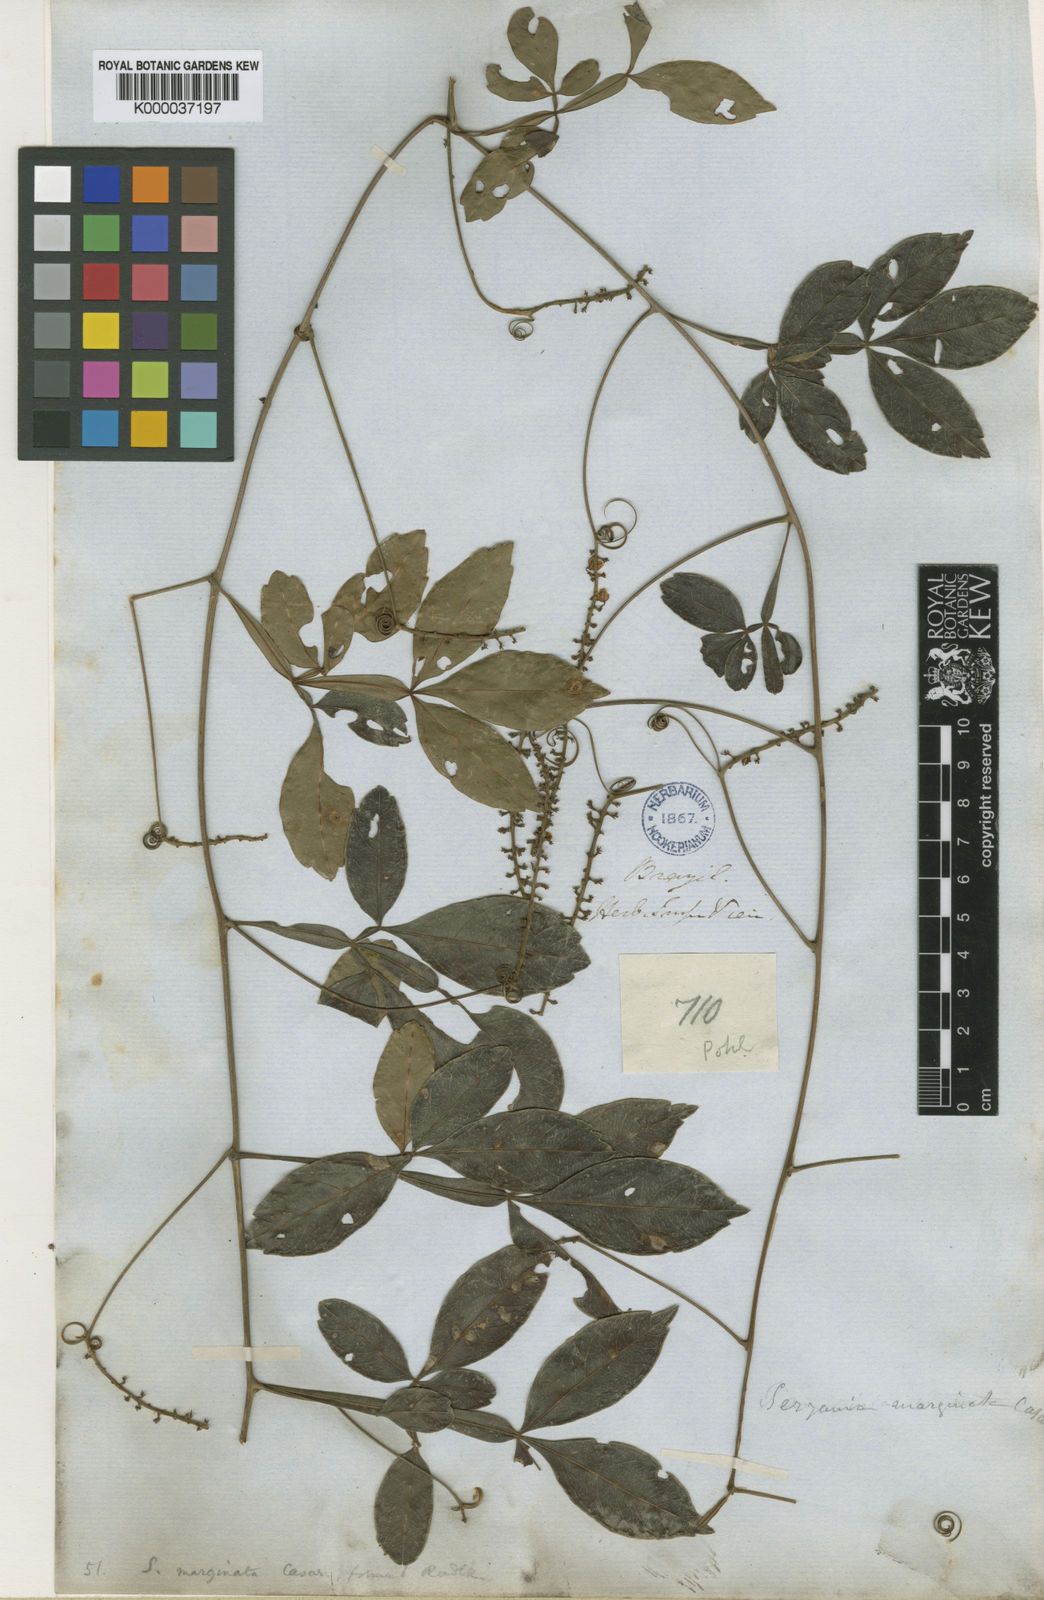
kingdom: Plantae
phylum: Tracheophyta
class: Magnoliopsida
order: Sapindales
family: Sapindaceae
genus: Serjania
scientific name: Serjania marginata
